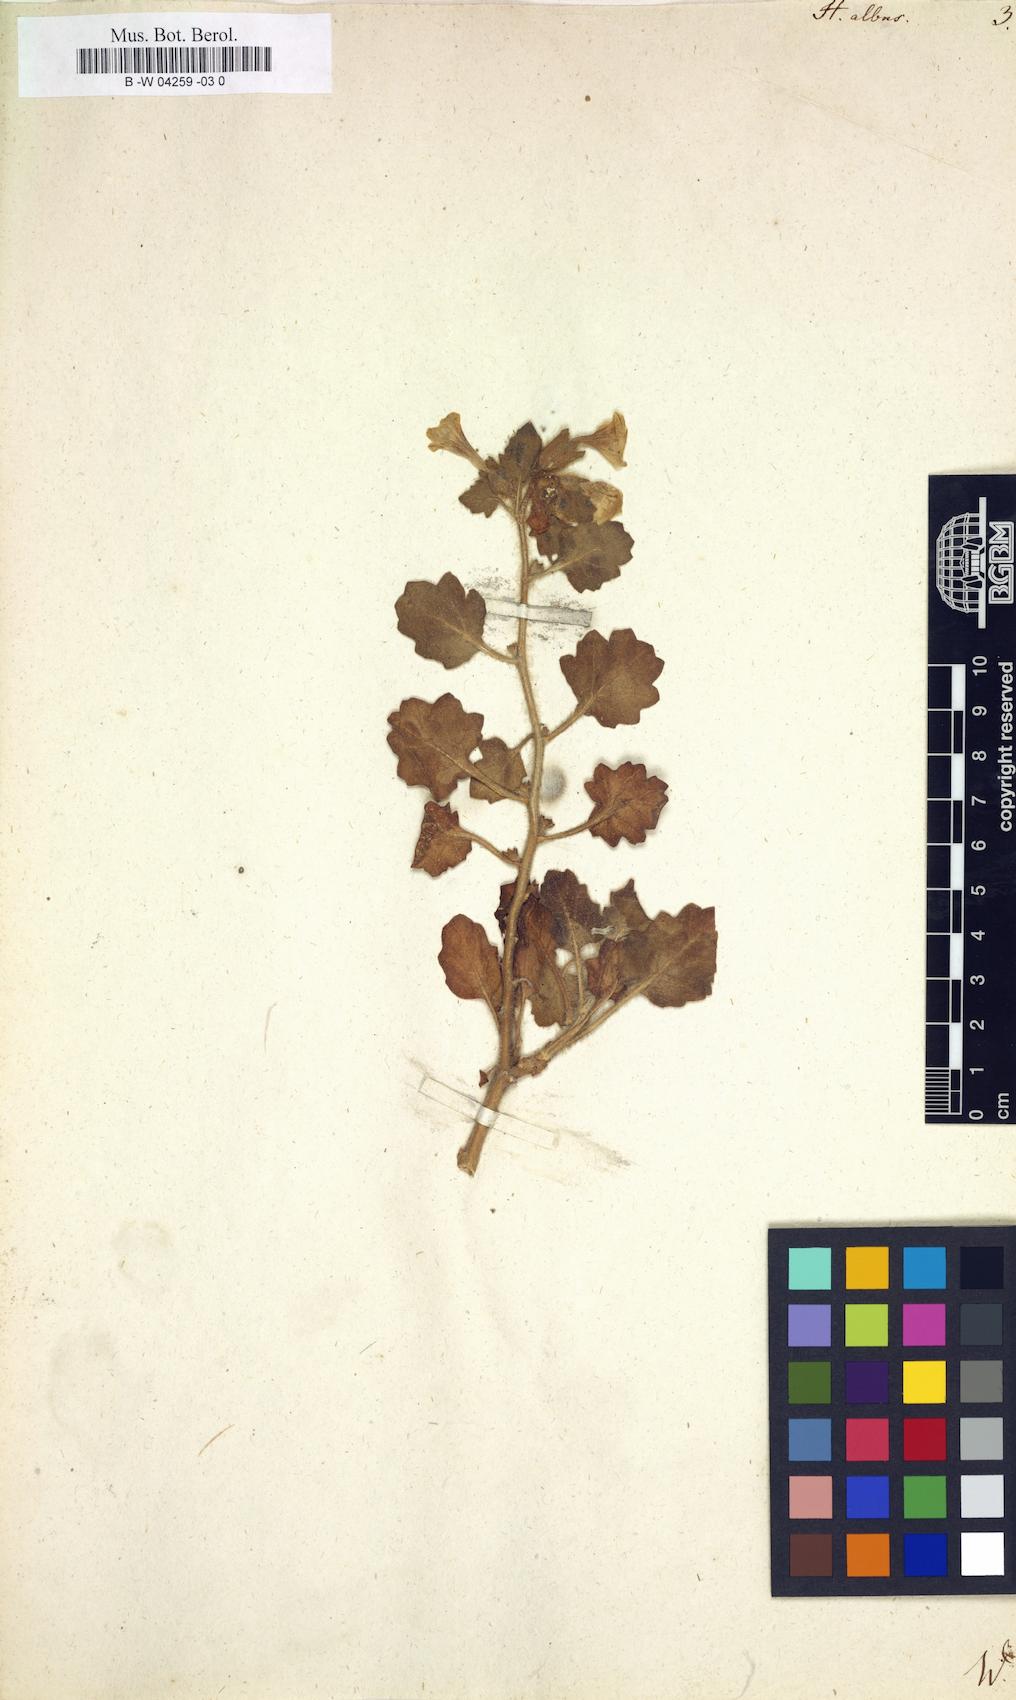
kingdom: Plantae
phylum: Tracheophyta
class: Magnoliopsida
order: Solanales
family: Solanaceae
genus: Hyoscyamus
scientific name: Hyoscyamus niger
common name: Henbane
